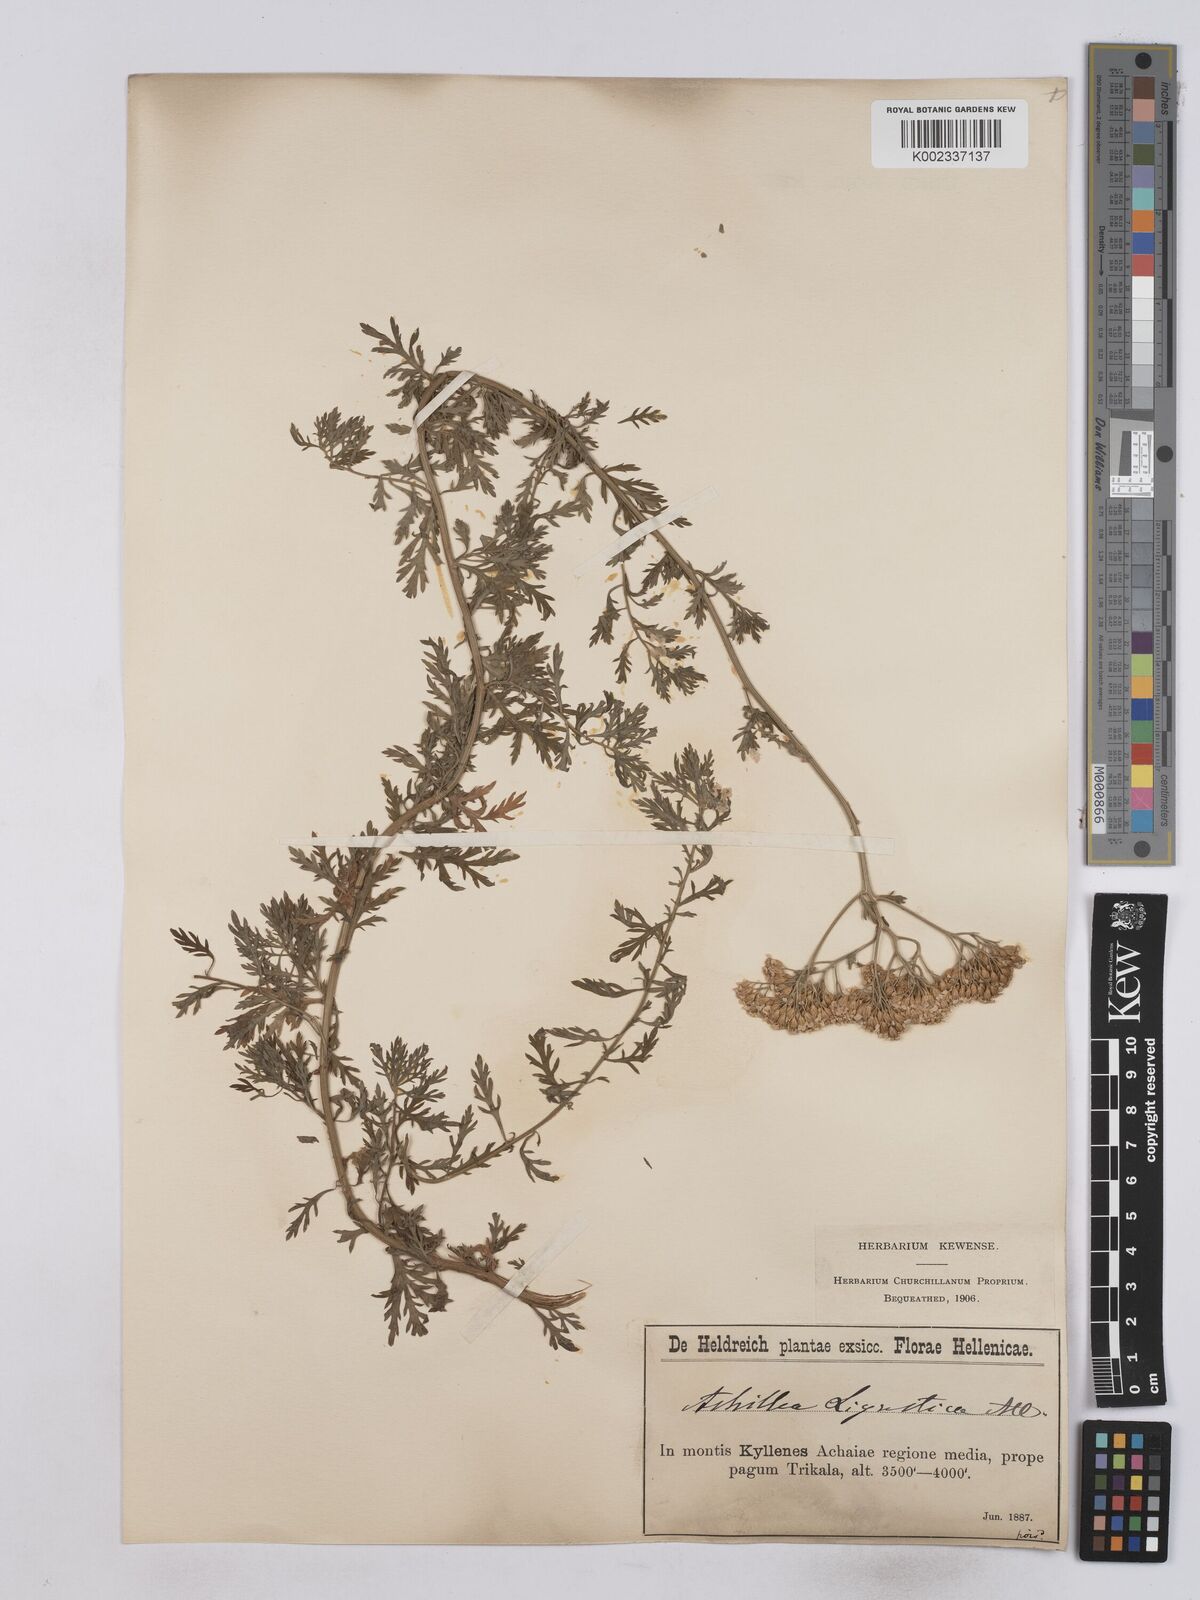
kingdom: Plantae
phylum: Tracheophyta
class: Magnoliopsida
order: Asterales
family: Asteraceae
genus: Achillea
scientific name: Achillea ligustica
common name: Southern yarrow
